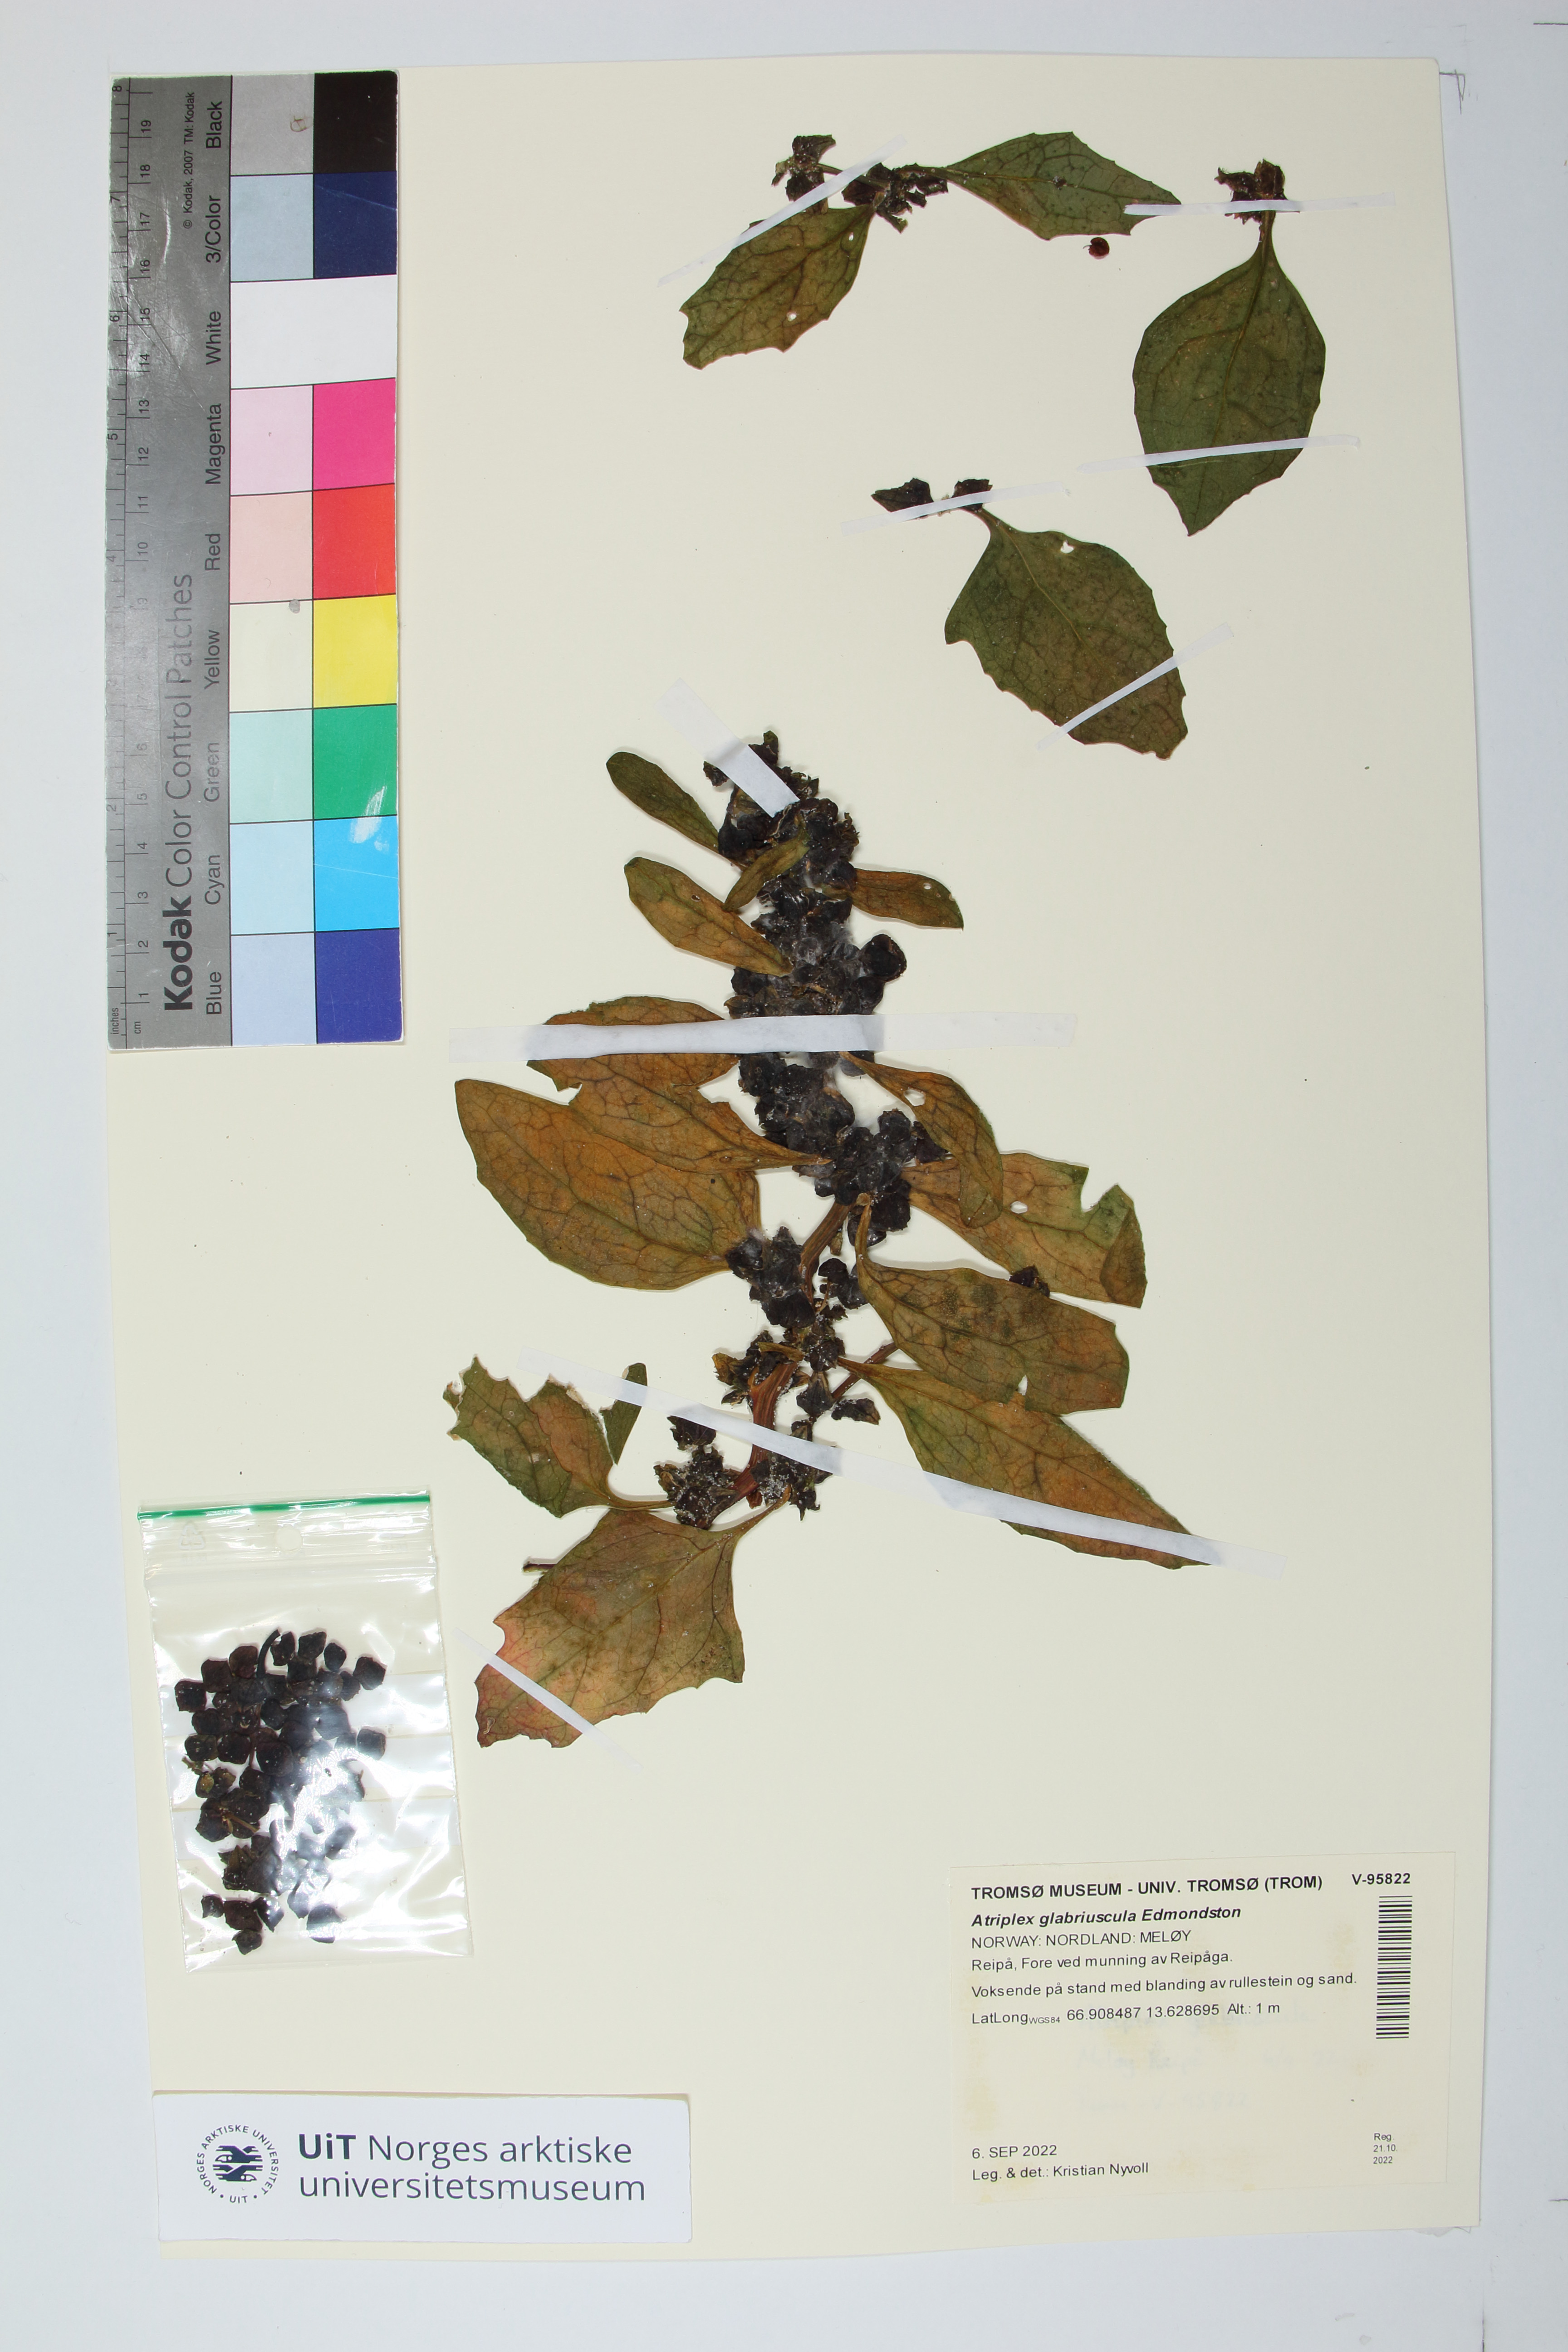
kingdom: Plantae
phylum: Tracheophyta
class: Magnoliopsida
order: Caryophyllales
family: Amaranthaceae
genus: Atriplex
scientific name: Atriplex glabriuscula
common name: Babington's orache
